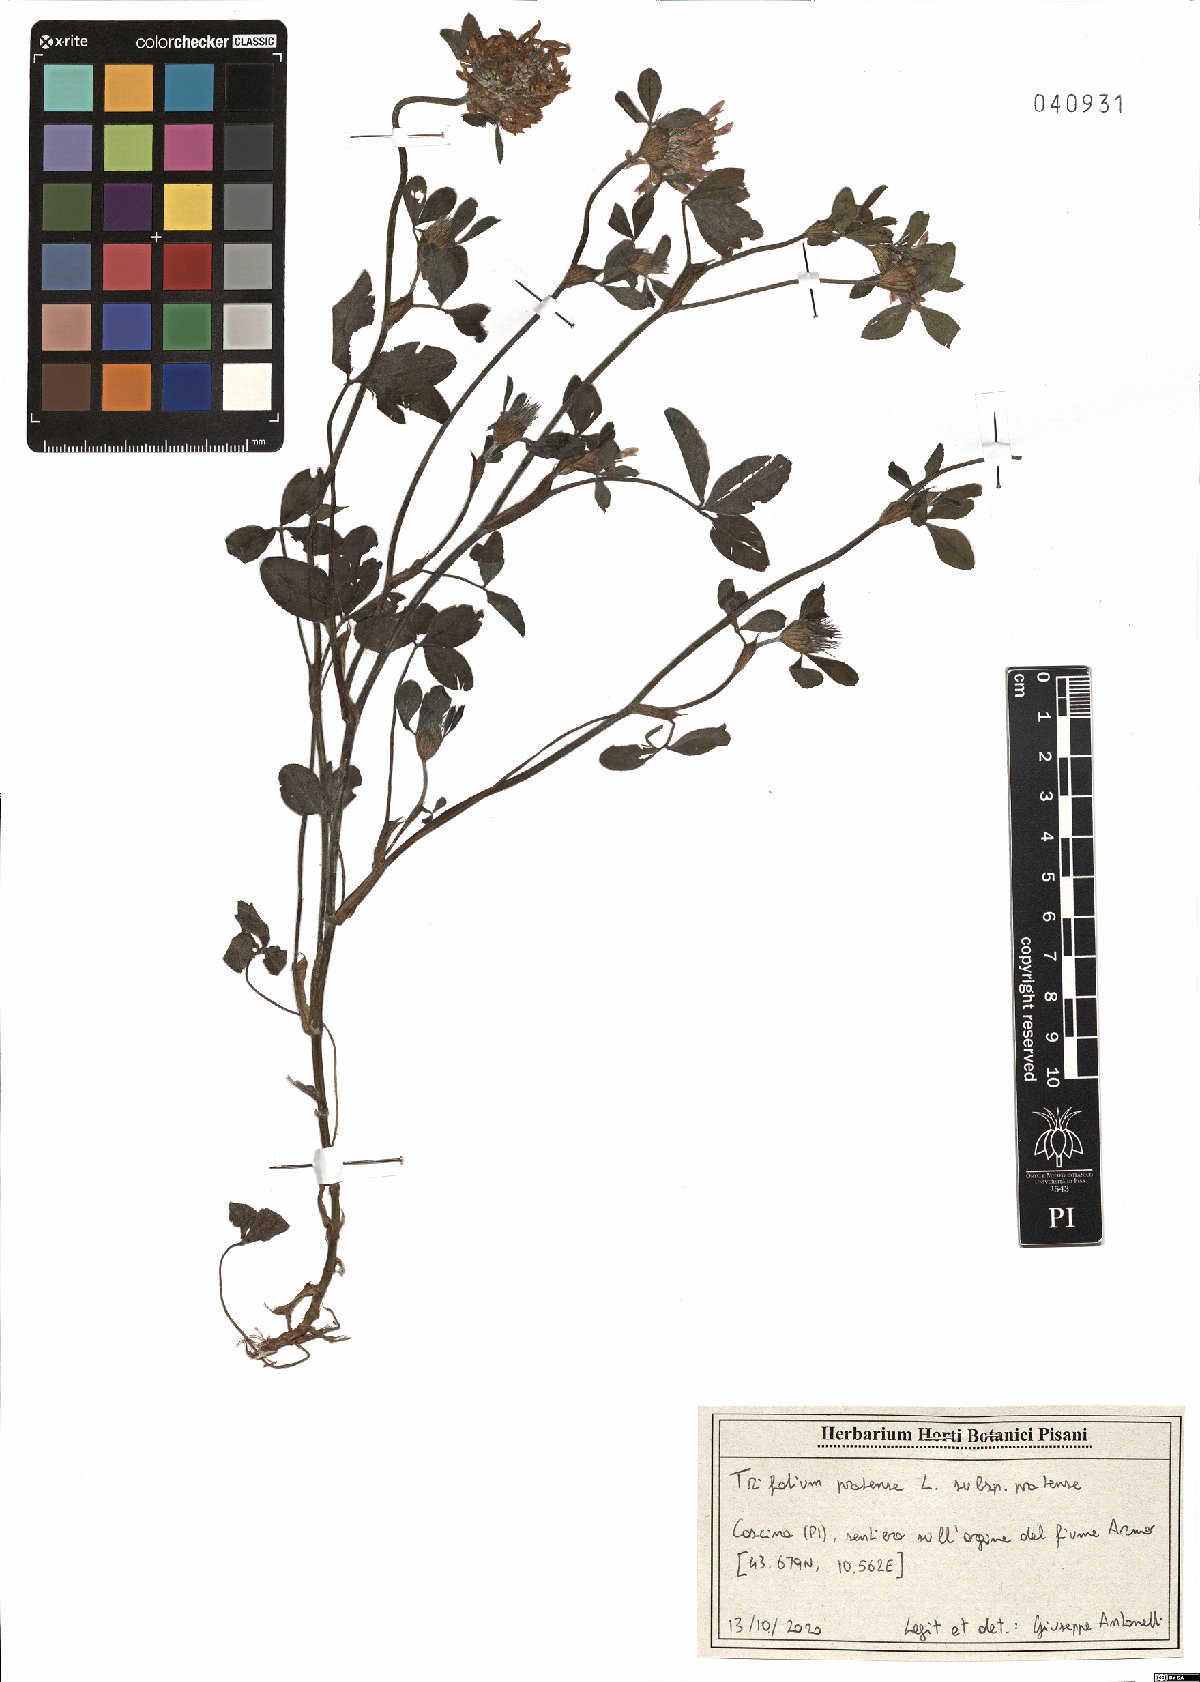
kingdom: Plantae
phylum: Tracheophyta
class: Magnoliopsida
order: Fabales
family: Fabaceae
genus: Trifolium
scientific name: Trifolium pratense
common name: Red clover
